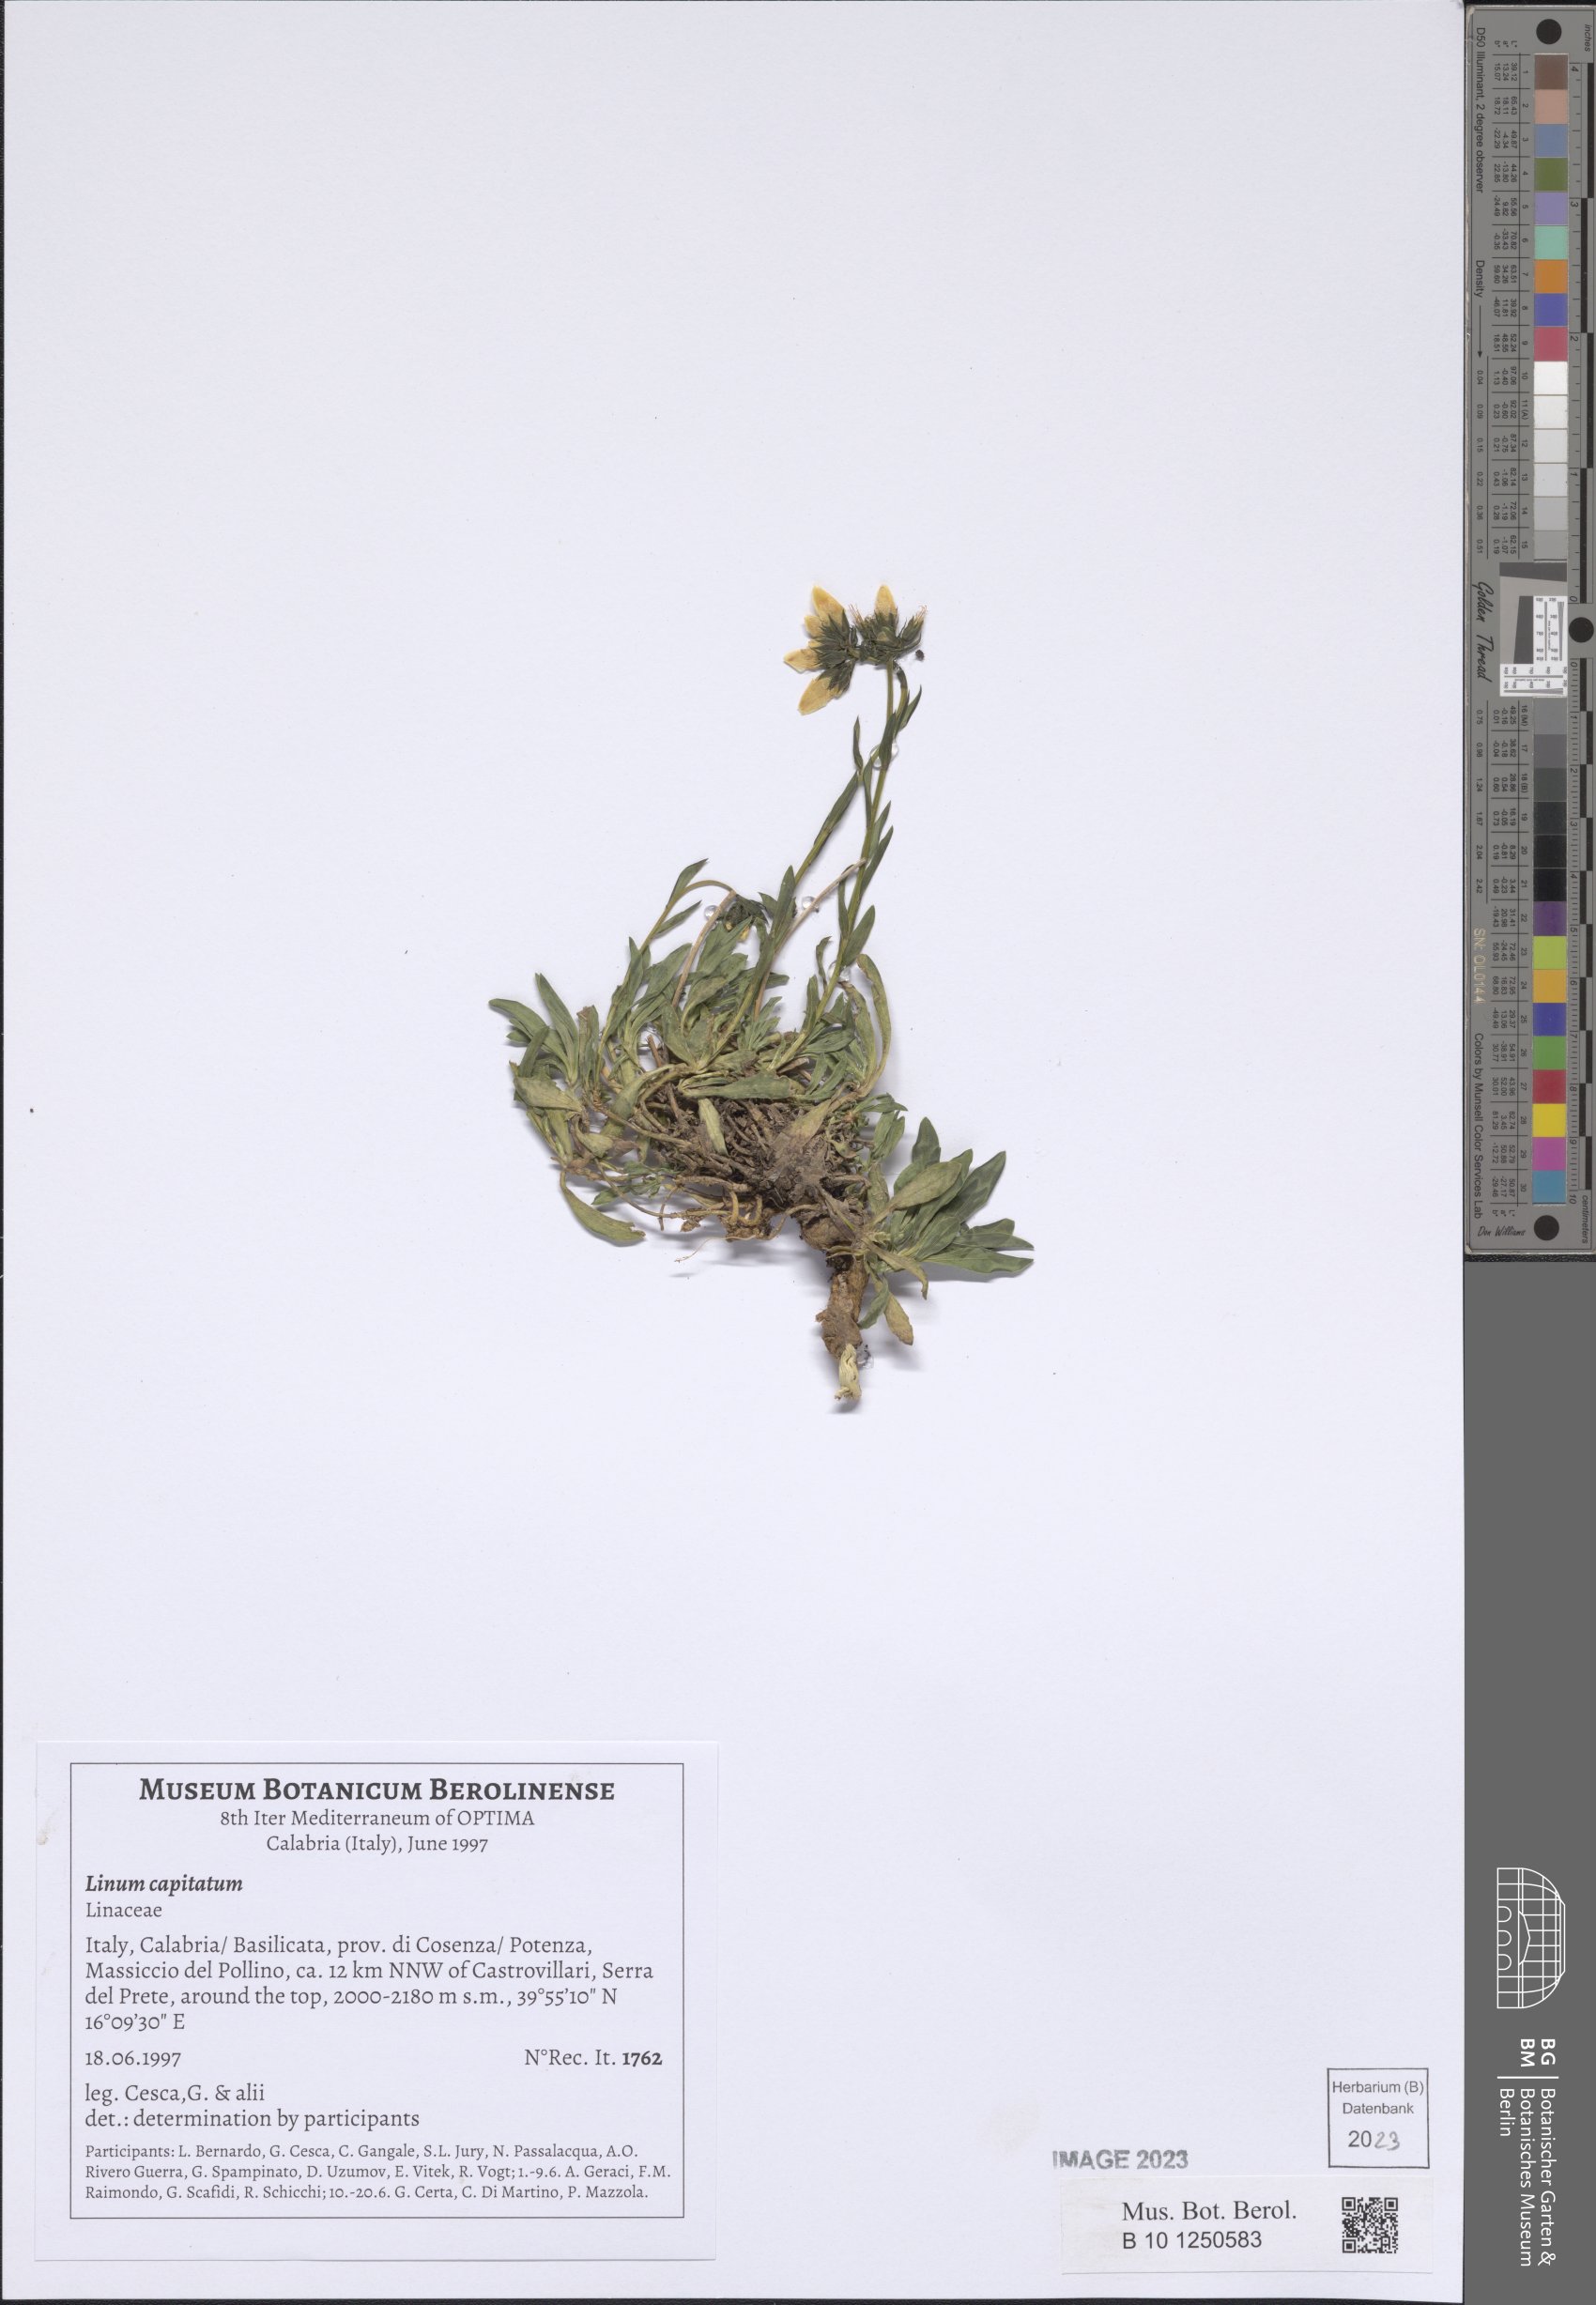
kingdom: Plantae
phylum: Tracheophyta
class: Magnoliopsida
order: Malpighiales
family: Linaceae
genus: Linum
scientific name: Linum capitatum
